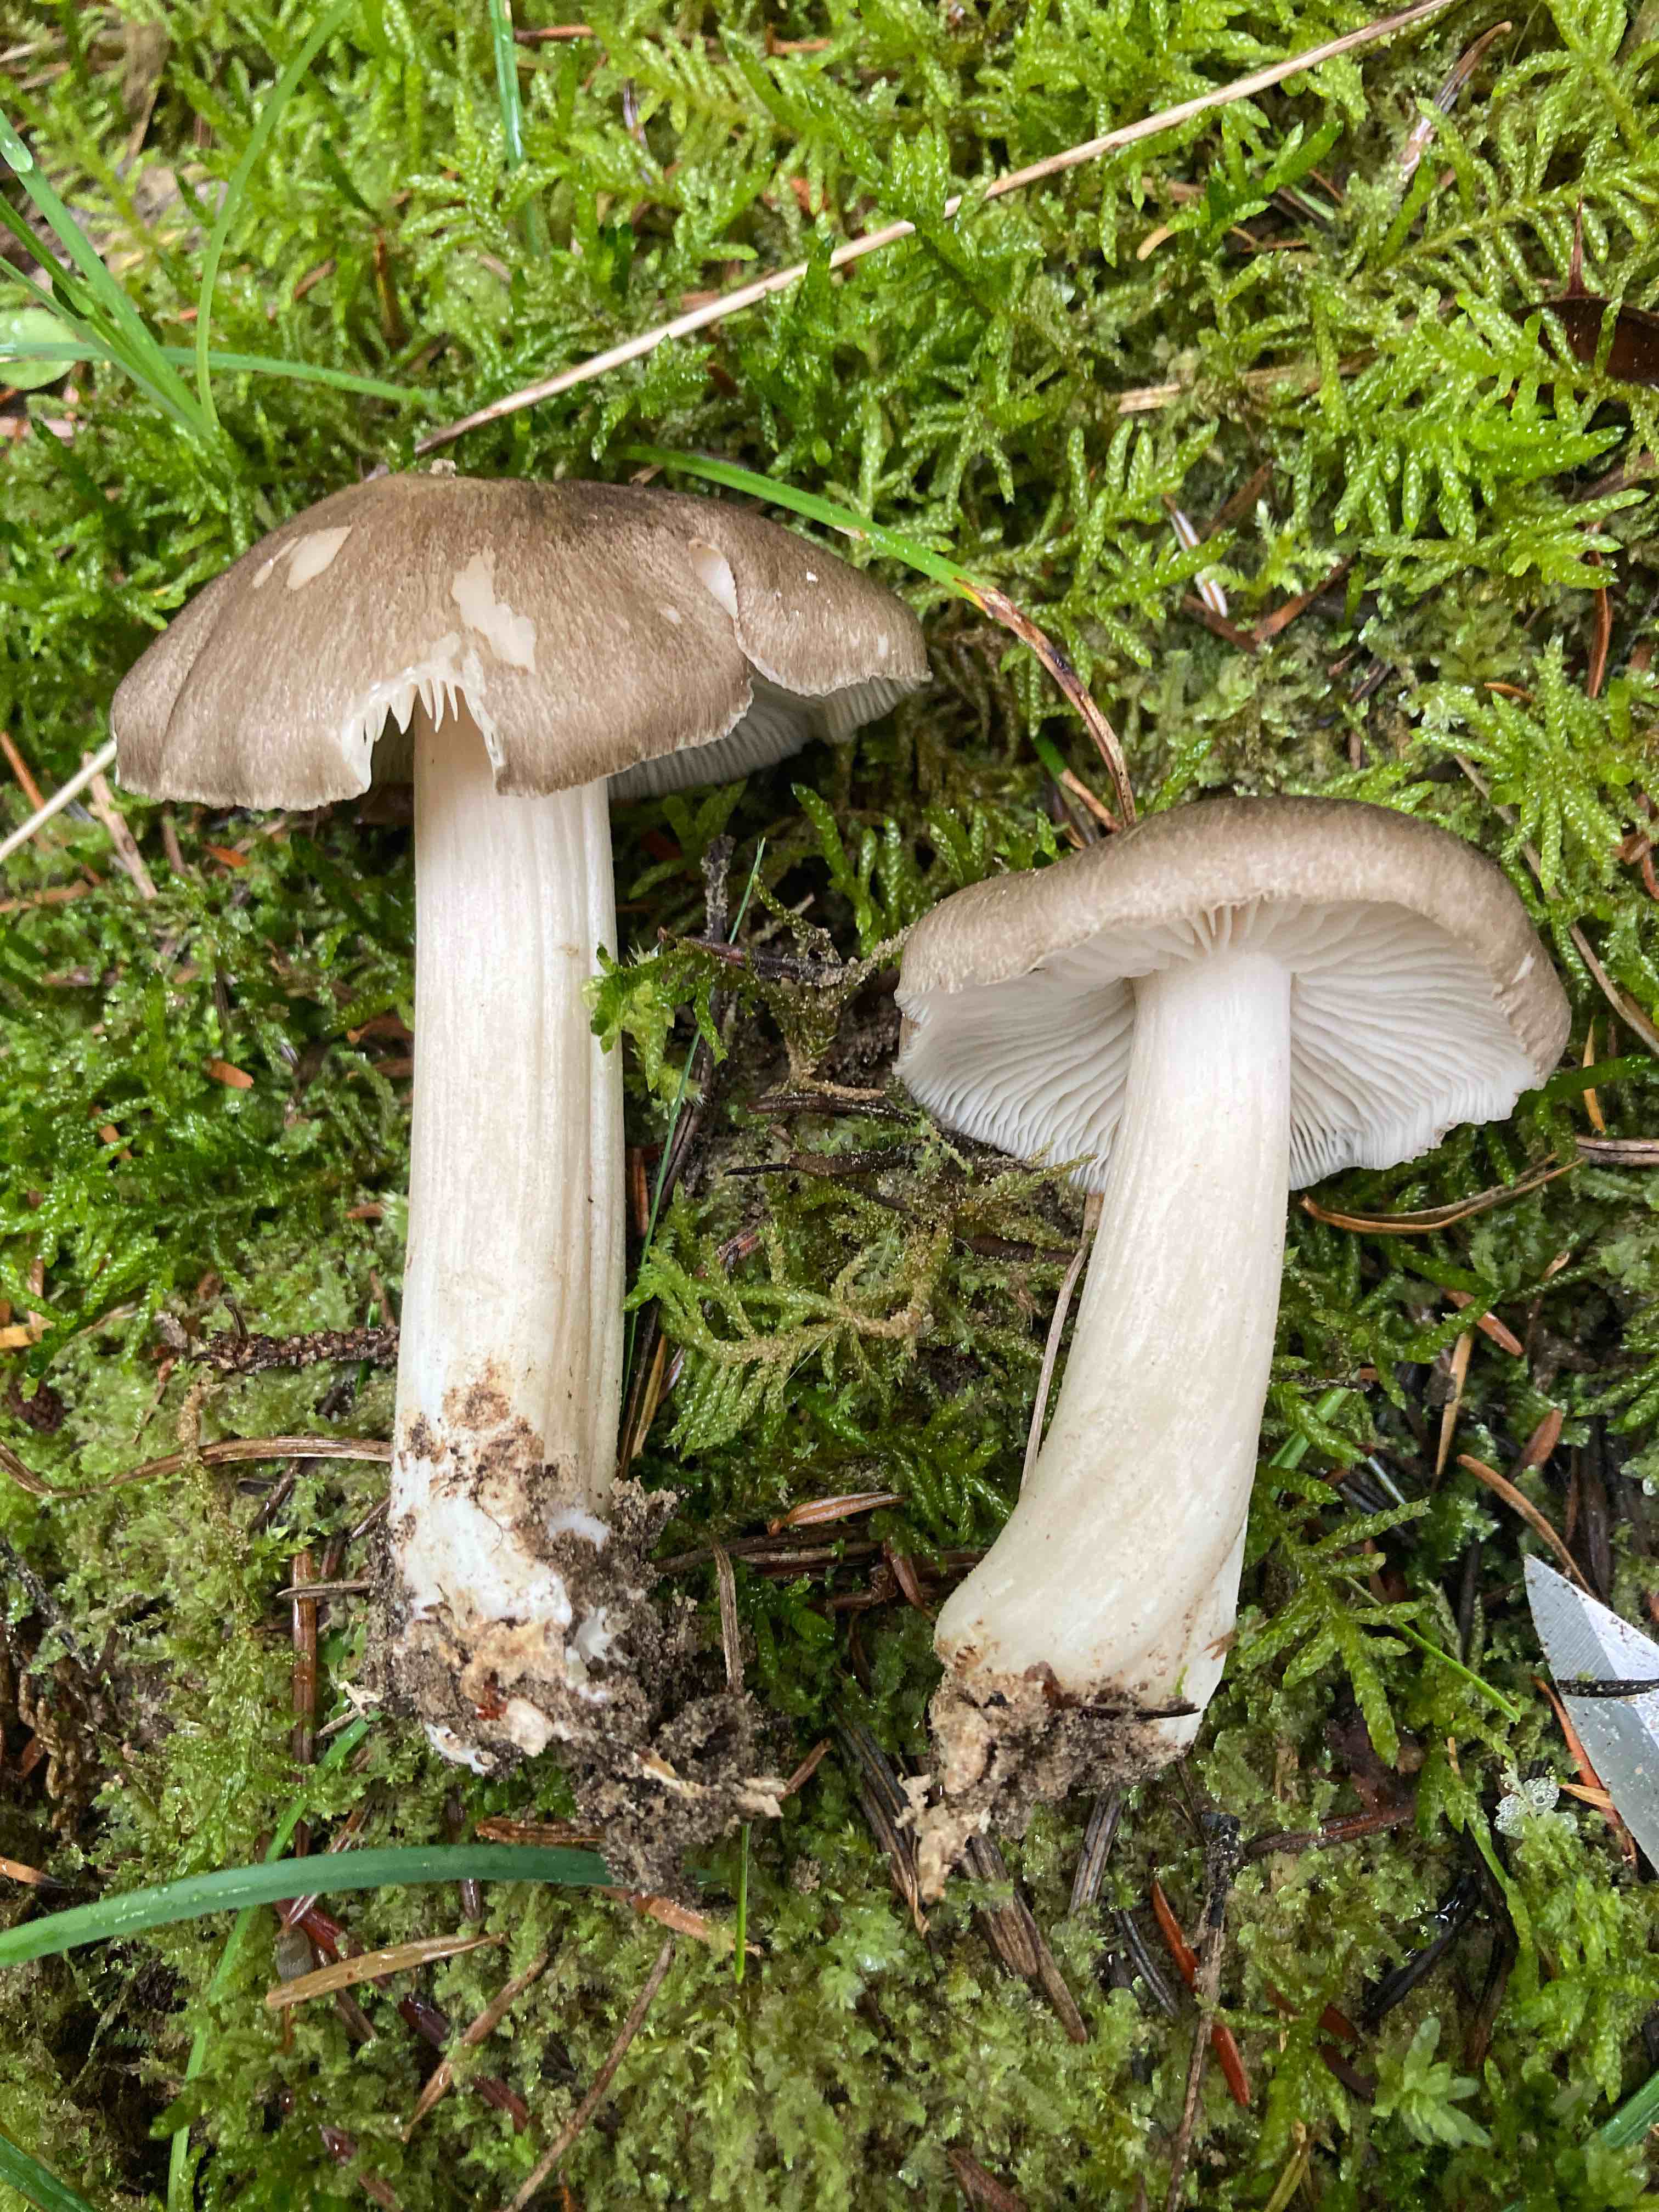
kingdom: Fungi
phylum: Basidiomycota
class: Agaricomycetes
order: Agaricales
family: Tricholomataceae
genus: Megacollybia
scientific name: Megacollybia platyphylla
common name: bredbladet væbnerhat
